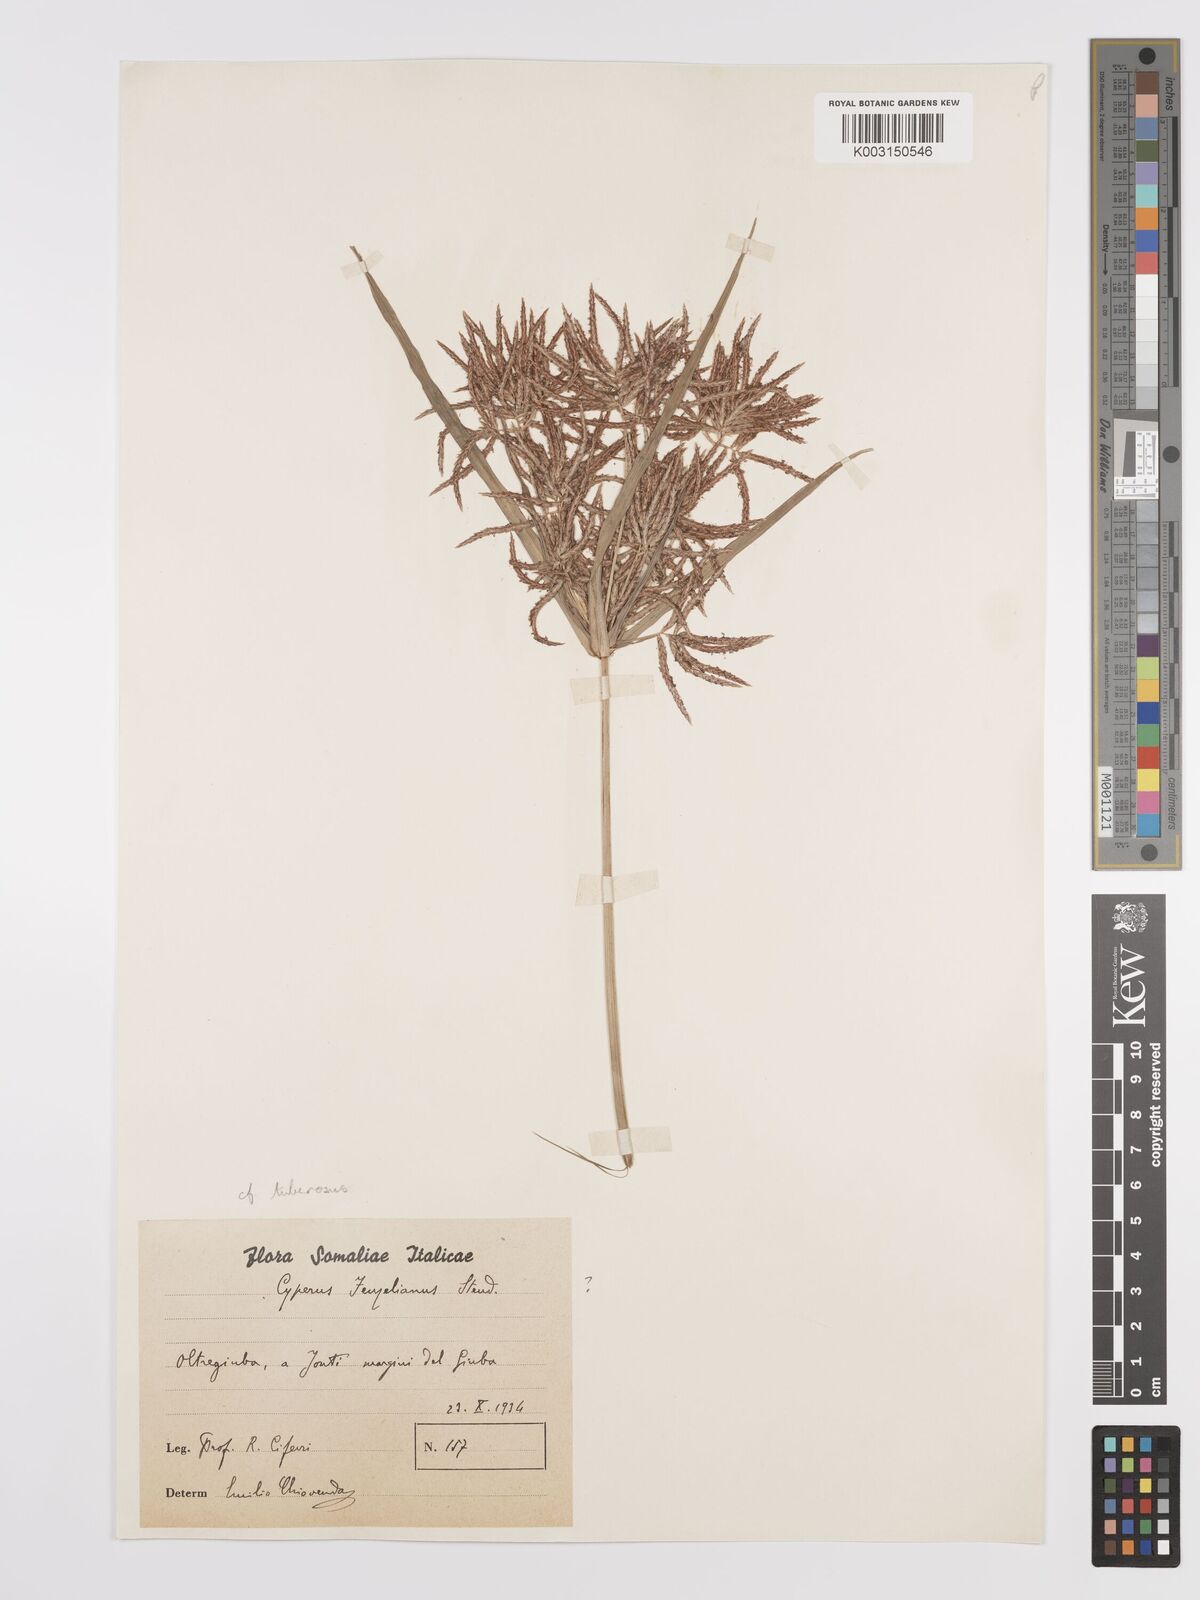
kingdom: Plantae
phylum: Tracheophyta
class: Liliopsida
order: Poales
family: Cyperaceae
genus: Cyperus
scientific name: Cyperus tuberosus
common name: Nut grass
